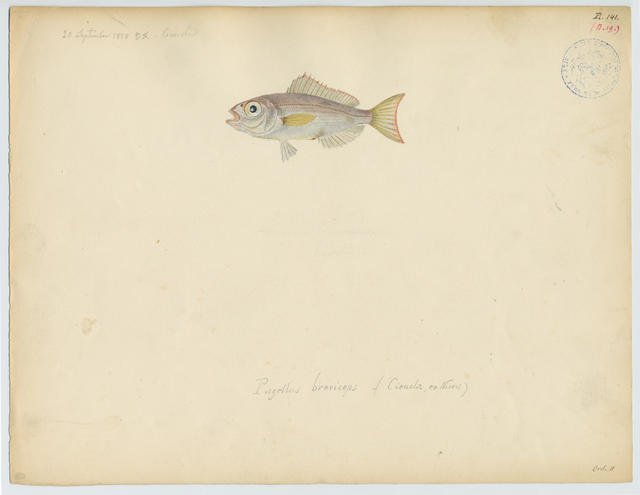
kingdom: Animalia
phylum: Chordata
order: Perciformes
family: Sparidae
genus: Pagellus
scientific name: Pagellus bogaraveo
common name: Red sea-bream
